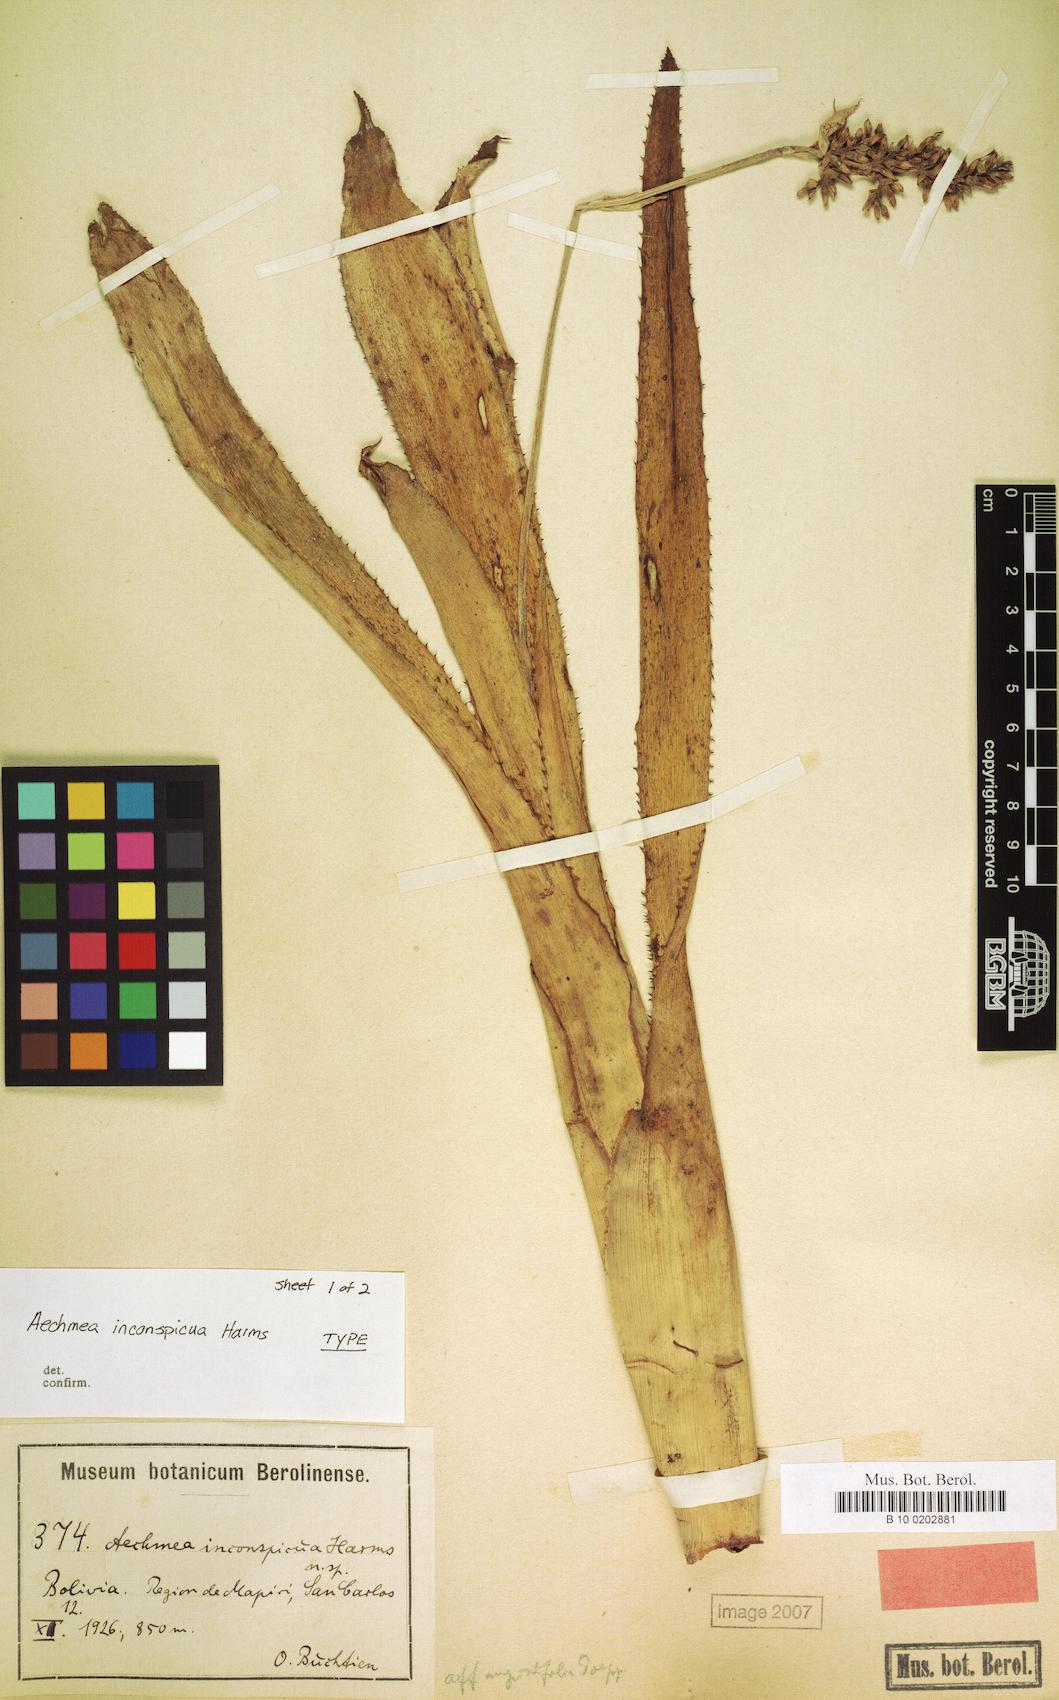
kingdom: Plantae
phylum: Tracheophyta
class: Liliopsida
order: Poales
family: Bromeliaceae
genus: Aechmea
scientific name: Aechmea angustifolia
